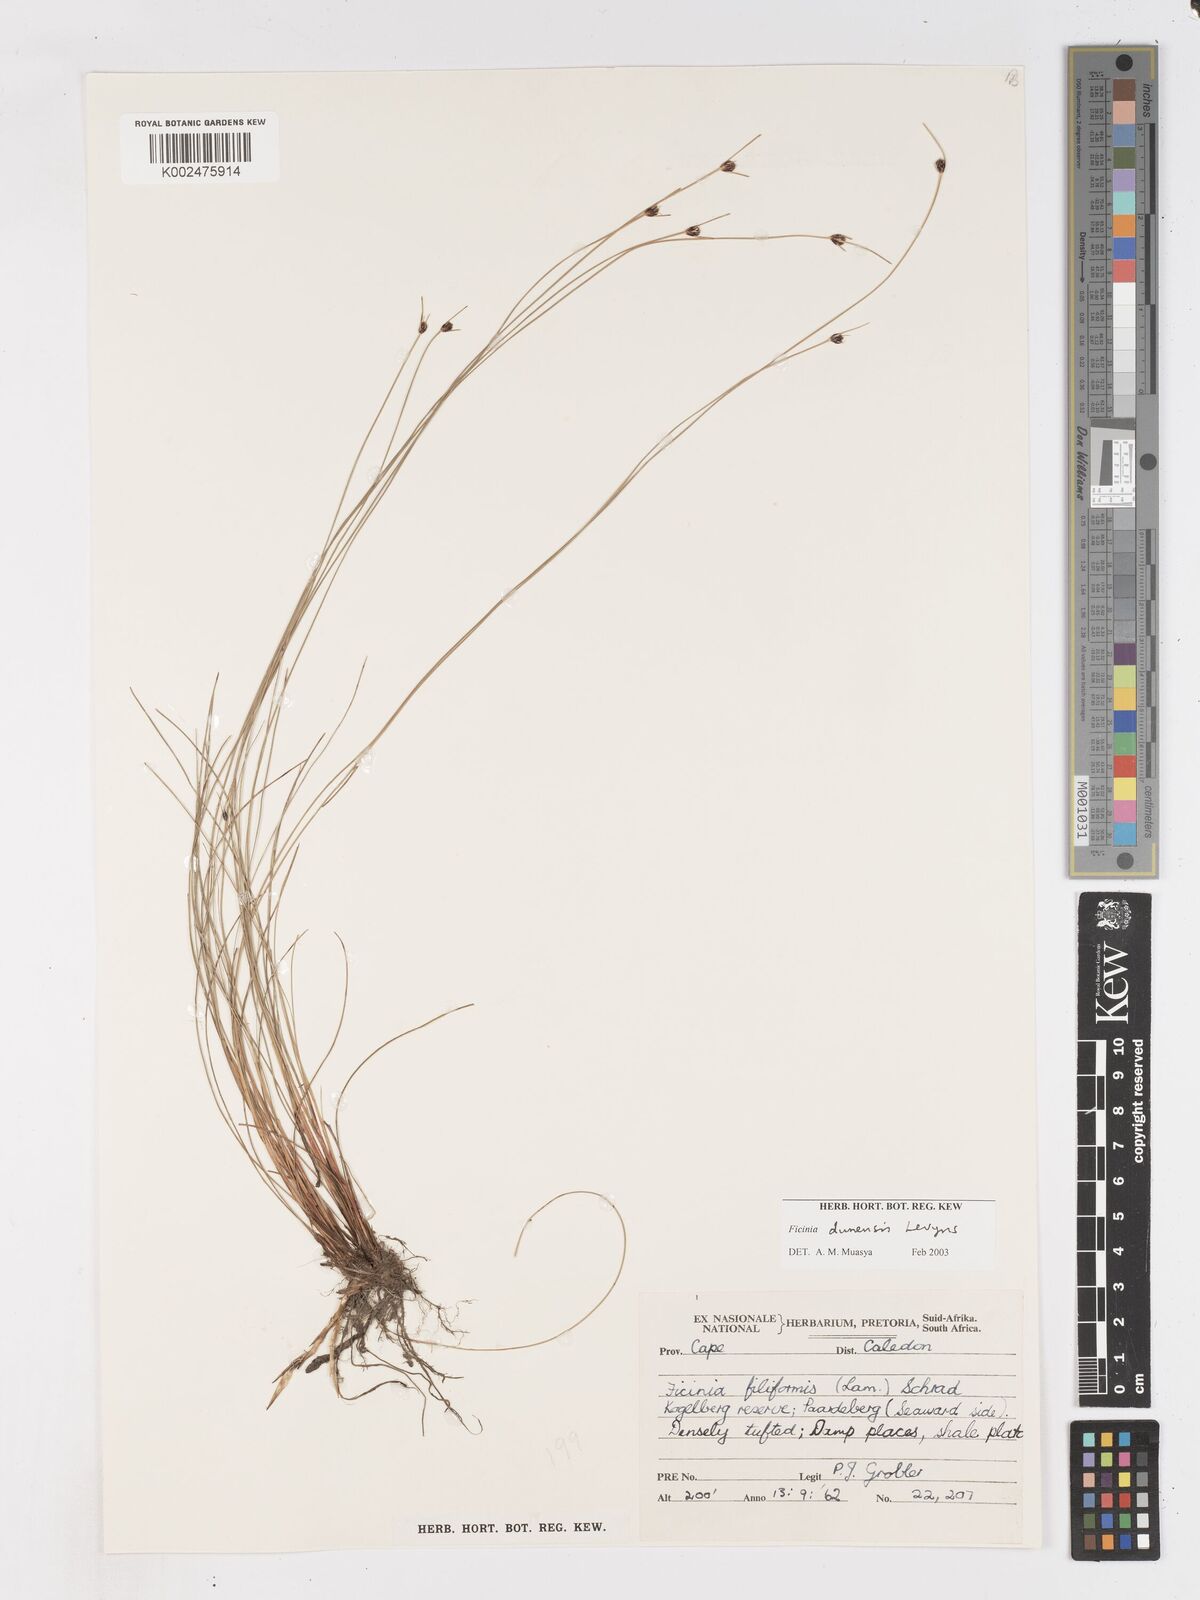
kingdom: Plantae
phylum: Tracheophyta
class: Liliopsida
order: Poales
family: Cyperaceae
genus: Ficinia
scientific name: Ficinia dunensis
